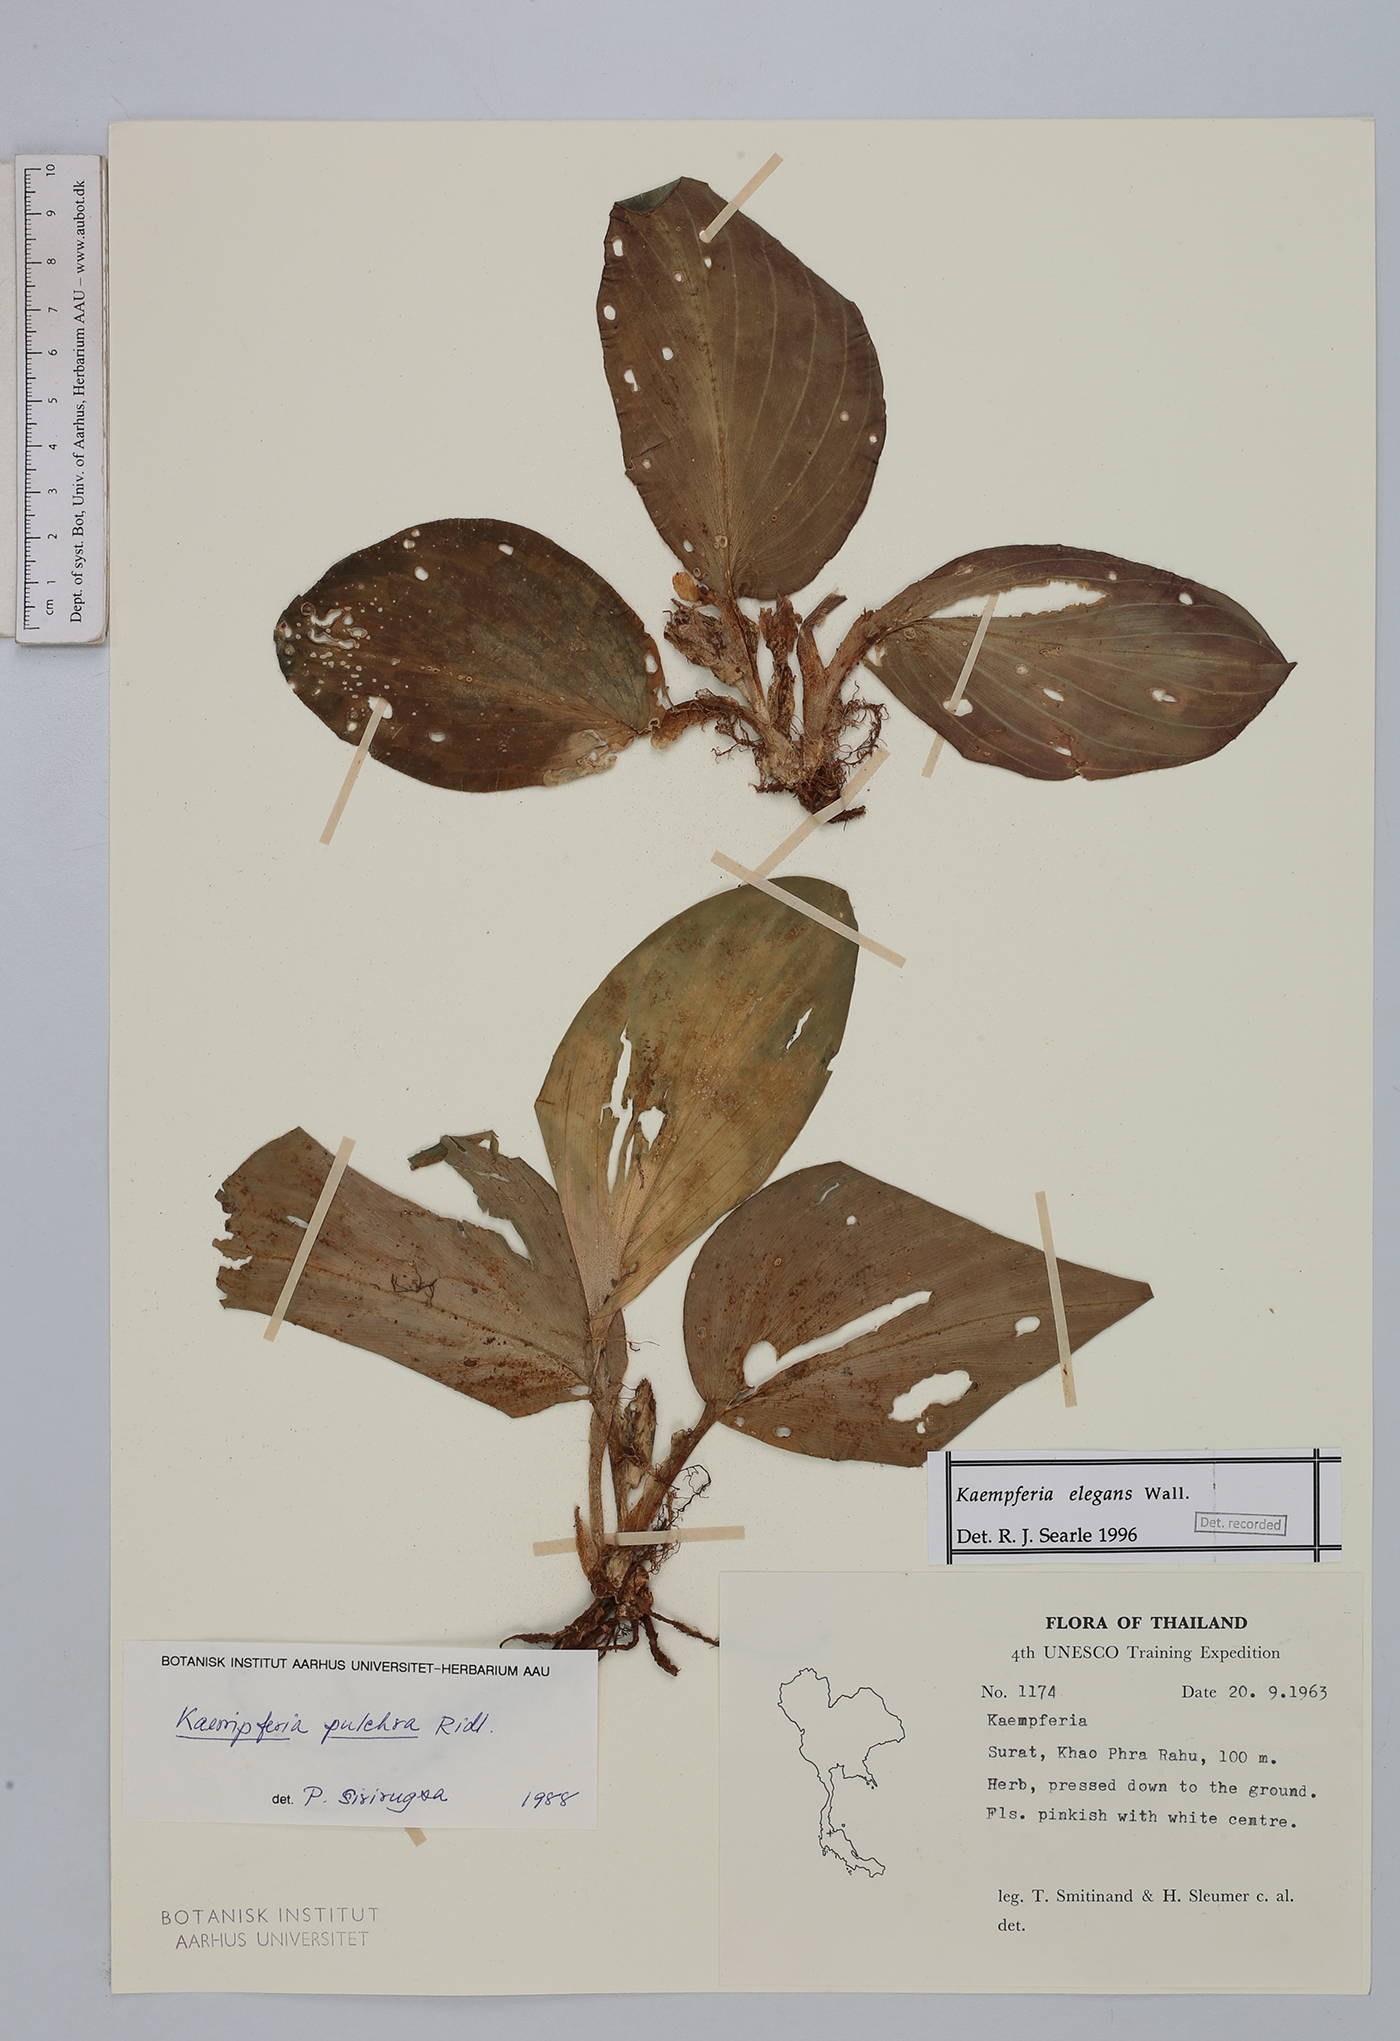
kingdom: Plantae
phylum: Tracheophyta
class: Liliopsida
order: Zingiberales
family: Zingiberaceae
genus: Kaempferia
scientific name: Kaempferia elegans
